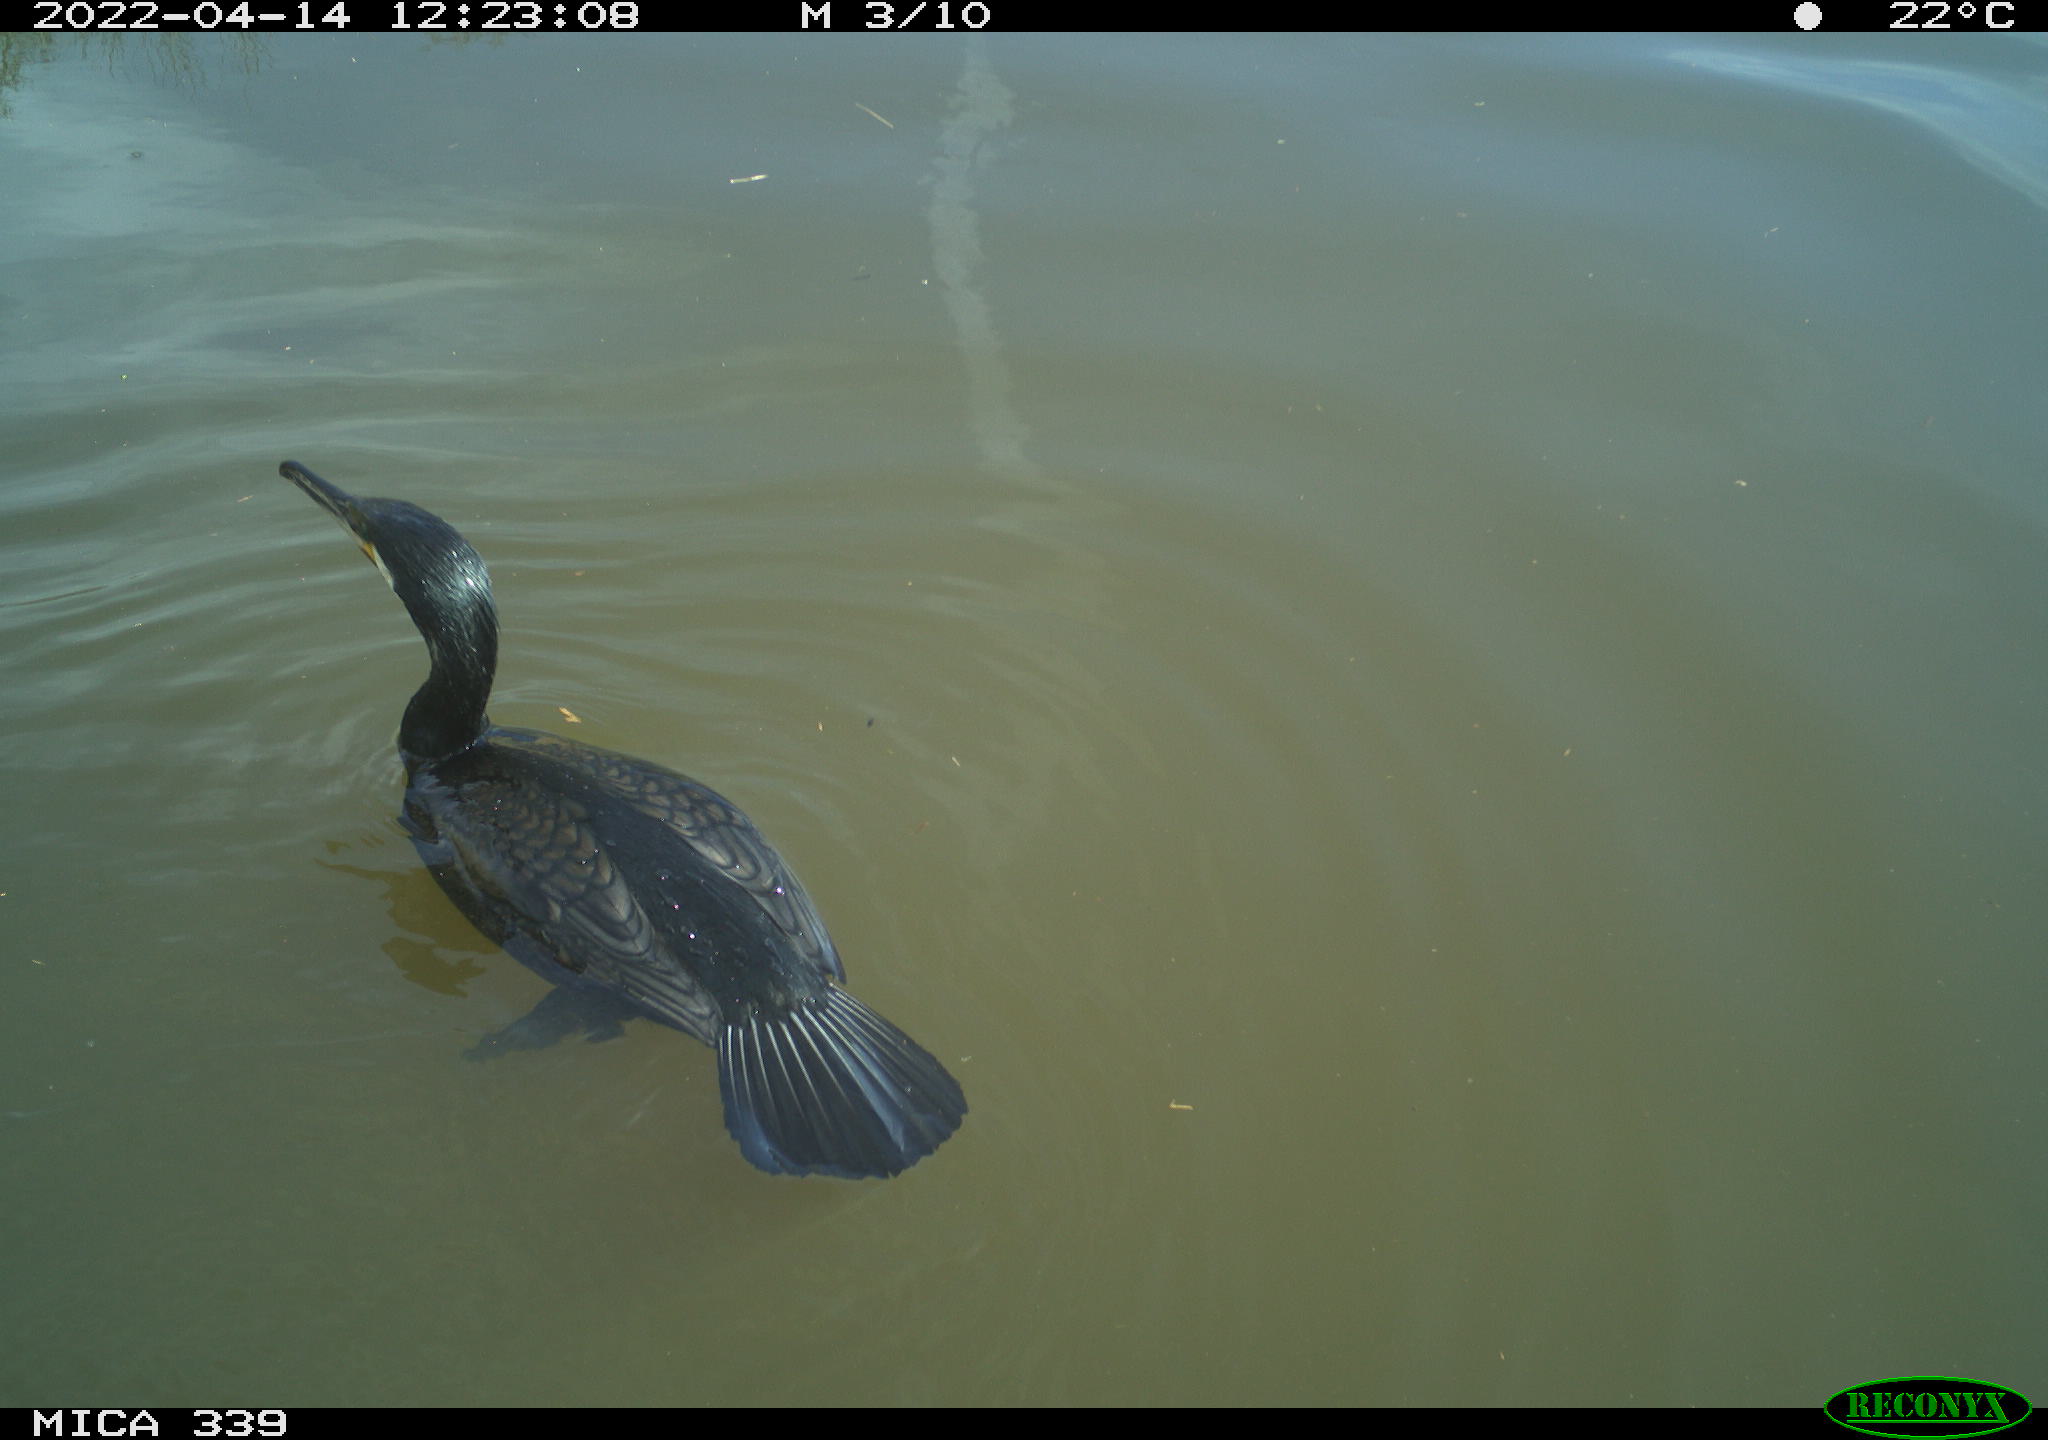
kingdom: Animalia
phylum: Chordata
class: Aves
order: Suliformes
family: Phalacrocoracidae
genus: Phalacrocorax
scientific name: Phalacrocorax carbo
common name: Great cormorant
